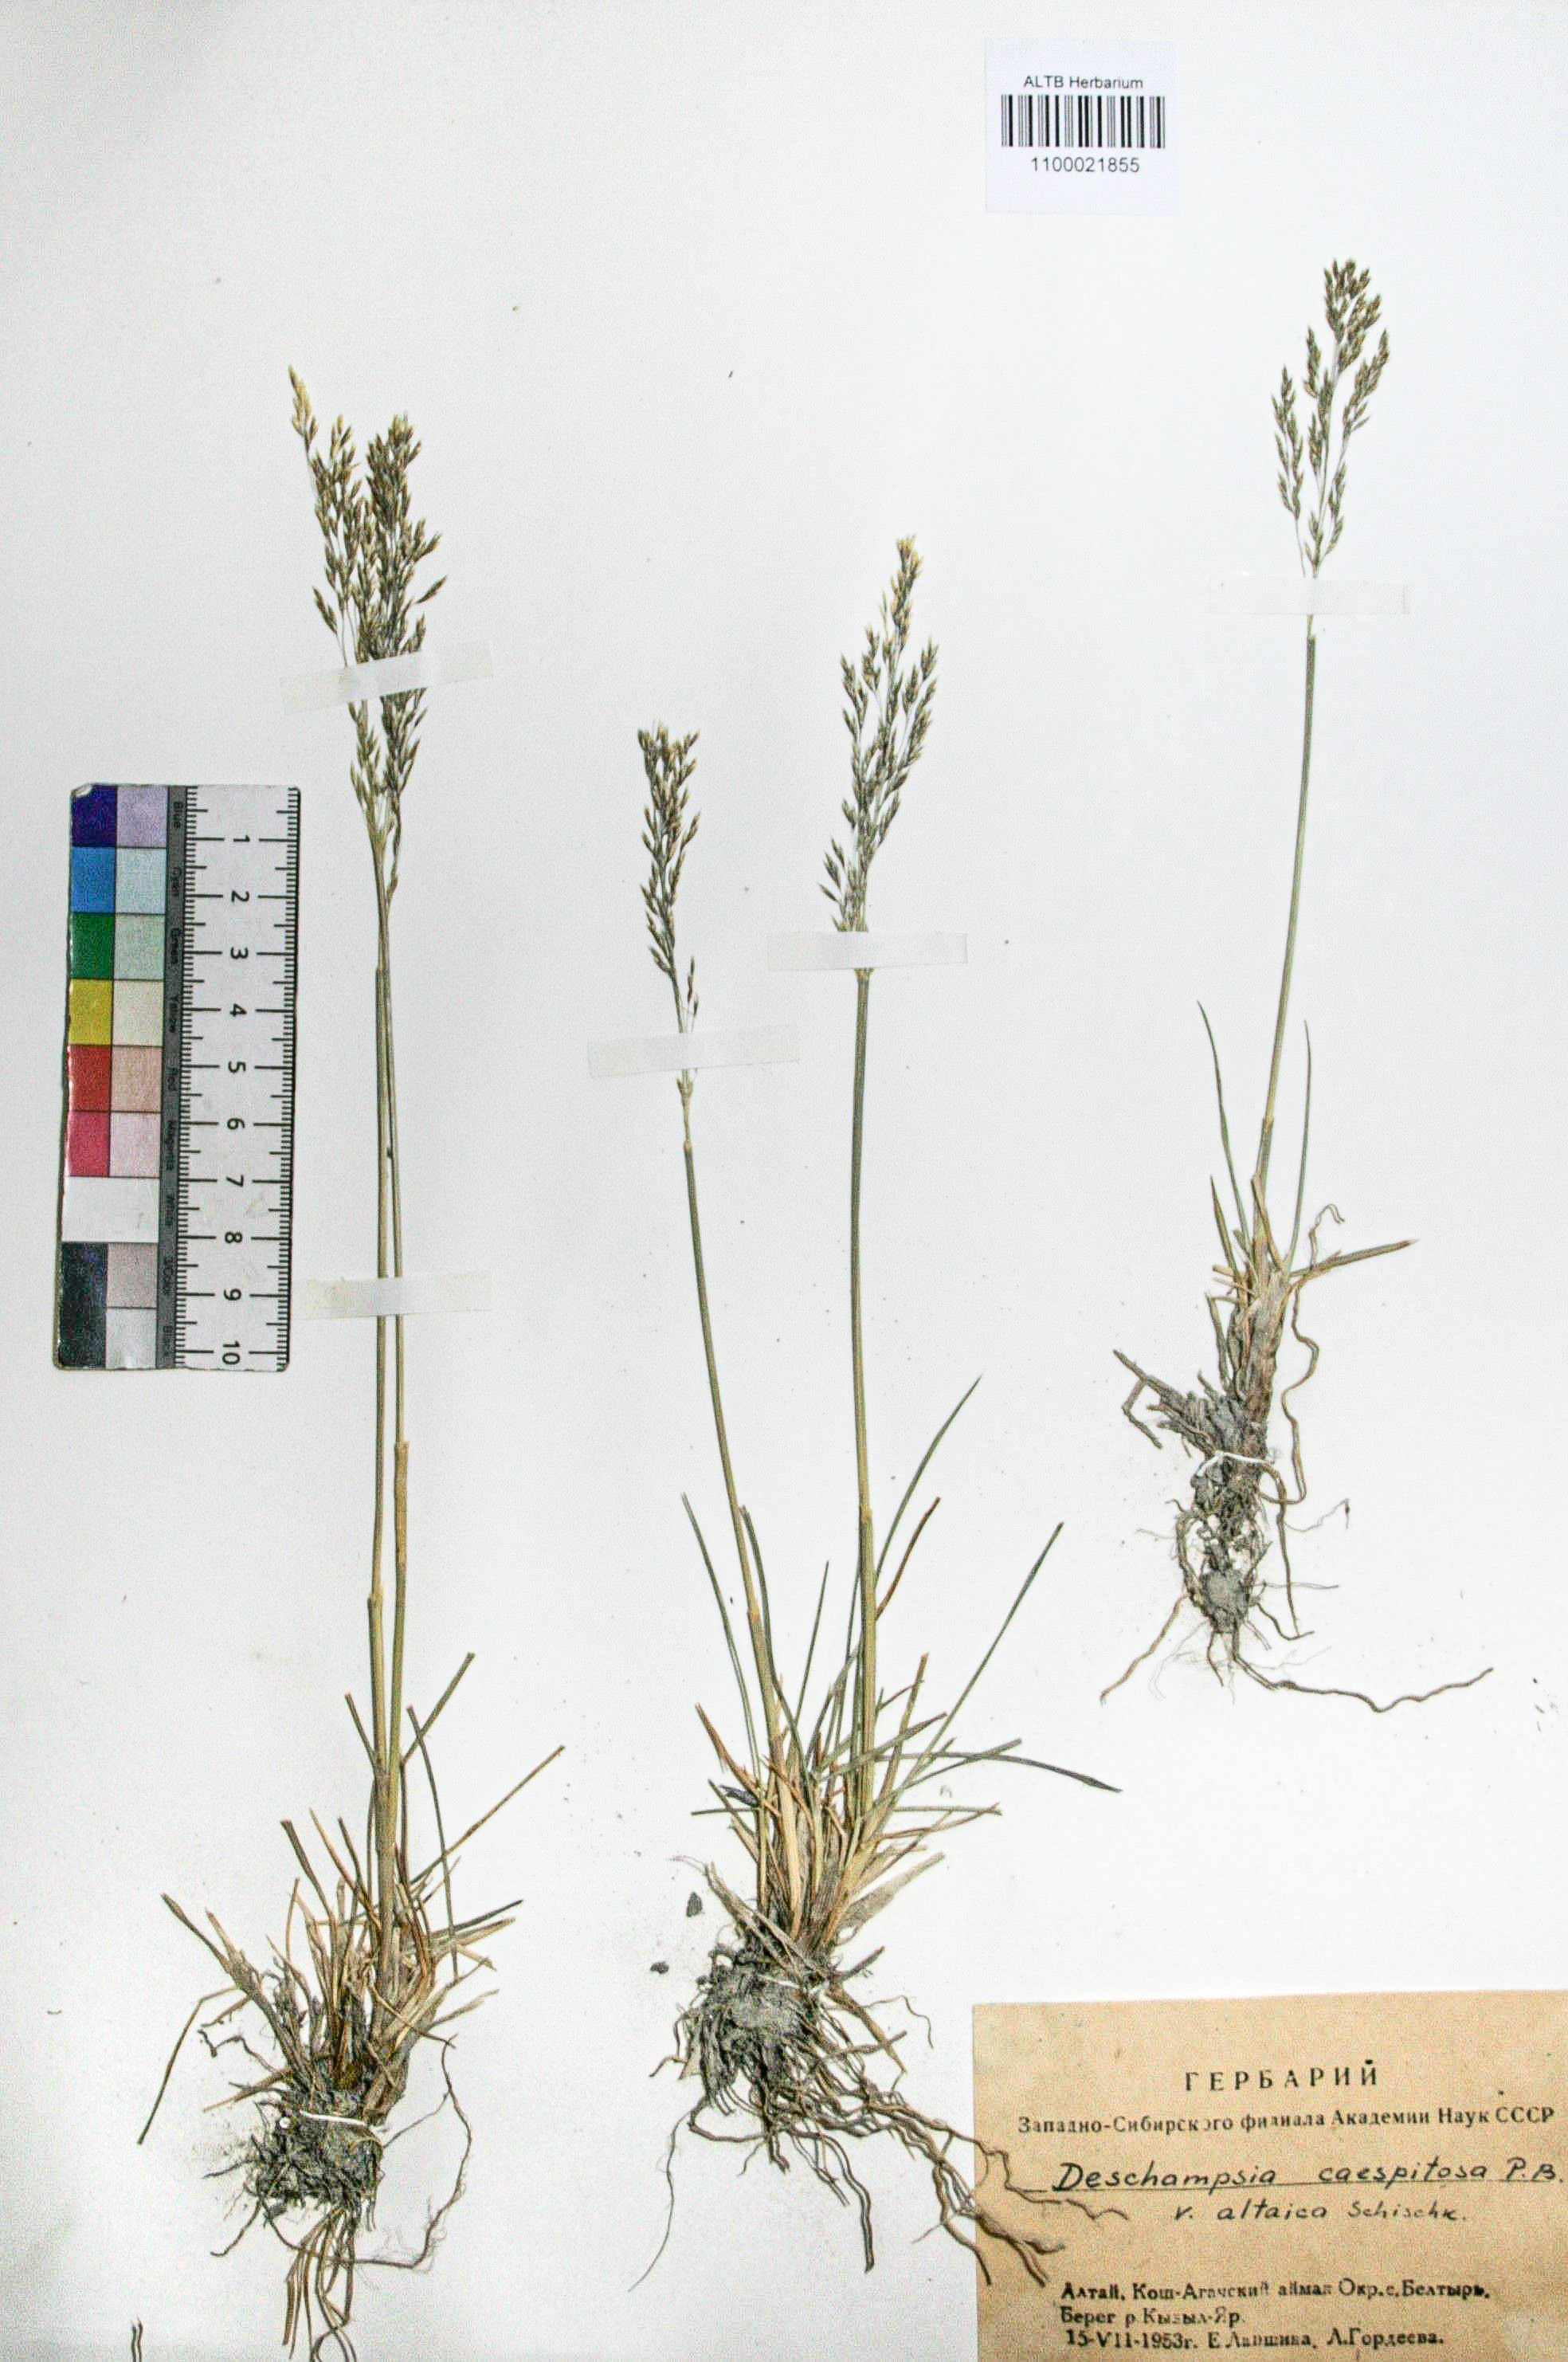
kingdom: Plantae
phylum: Tracheophyta
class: Liliopsida
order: Poales
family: Poaceae
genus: Deschampsia
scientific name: Deschampsia cespitosa
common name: Tufted hair-grass
